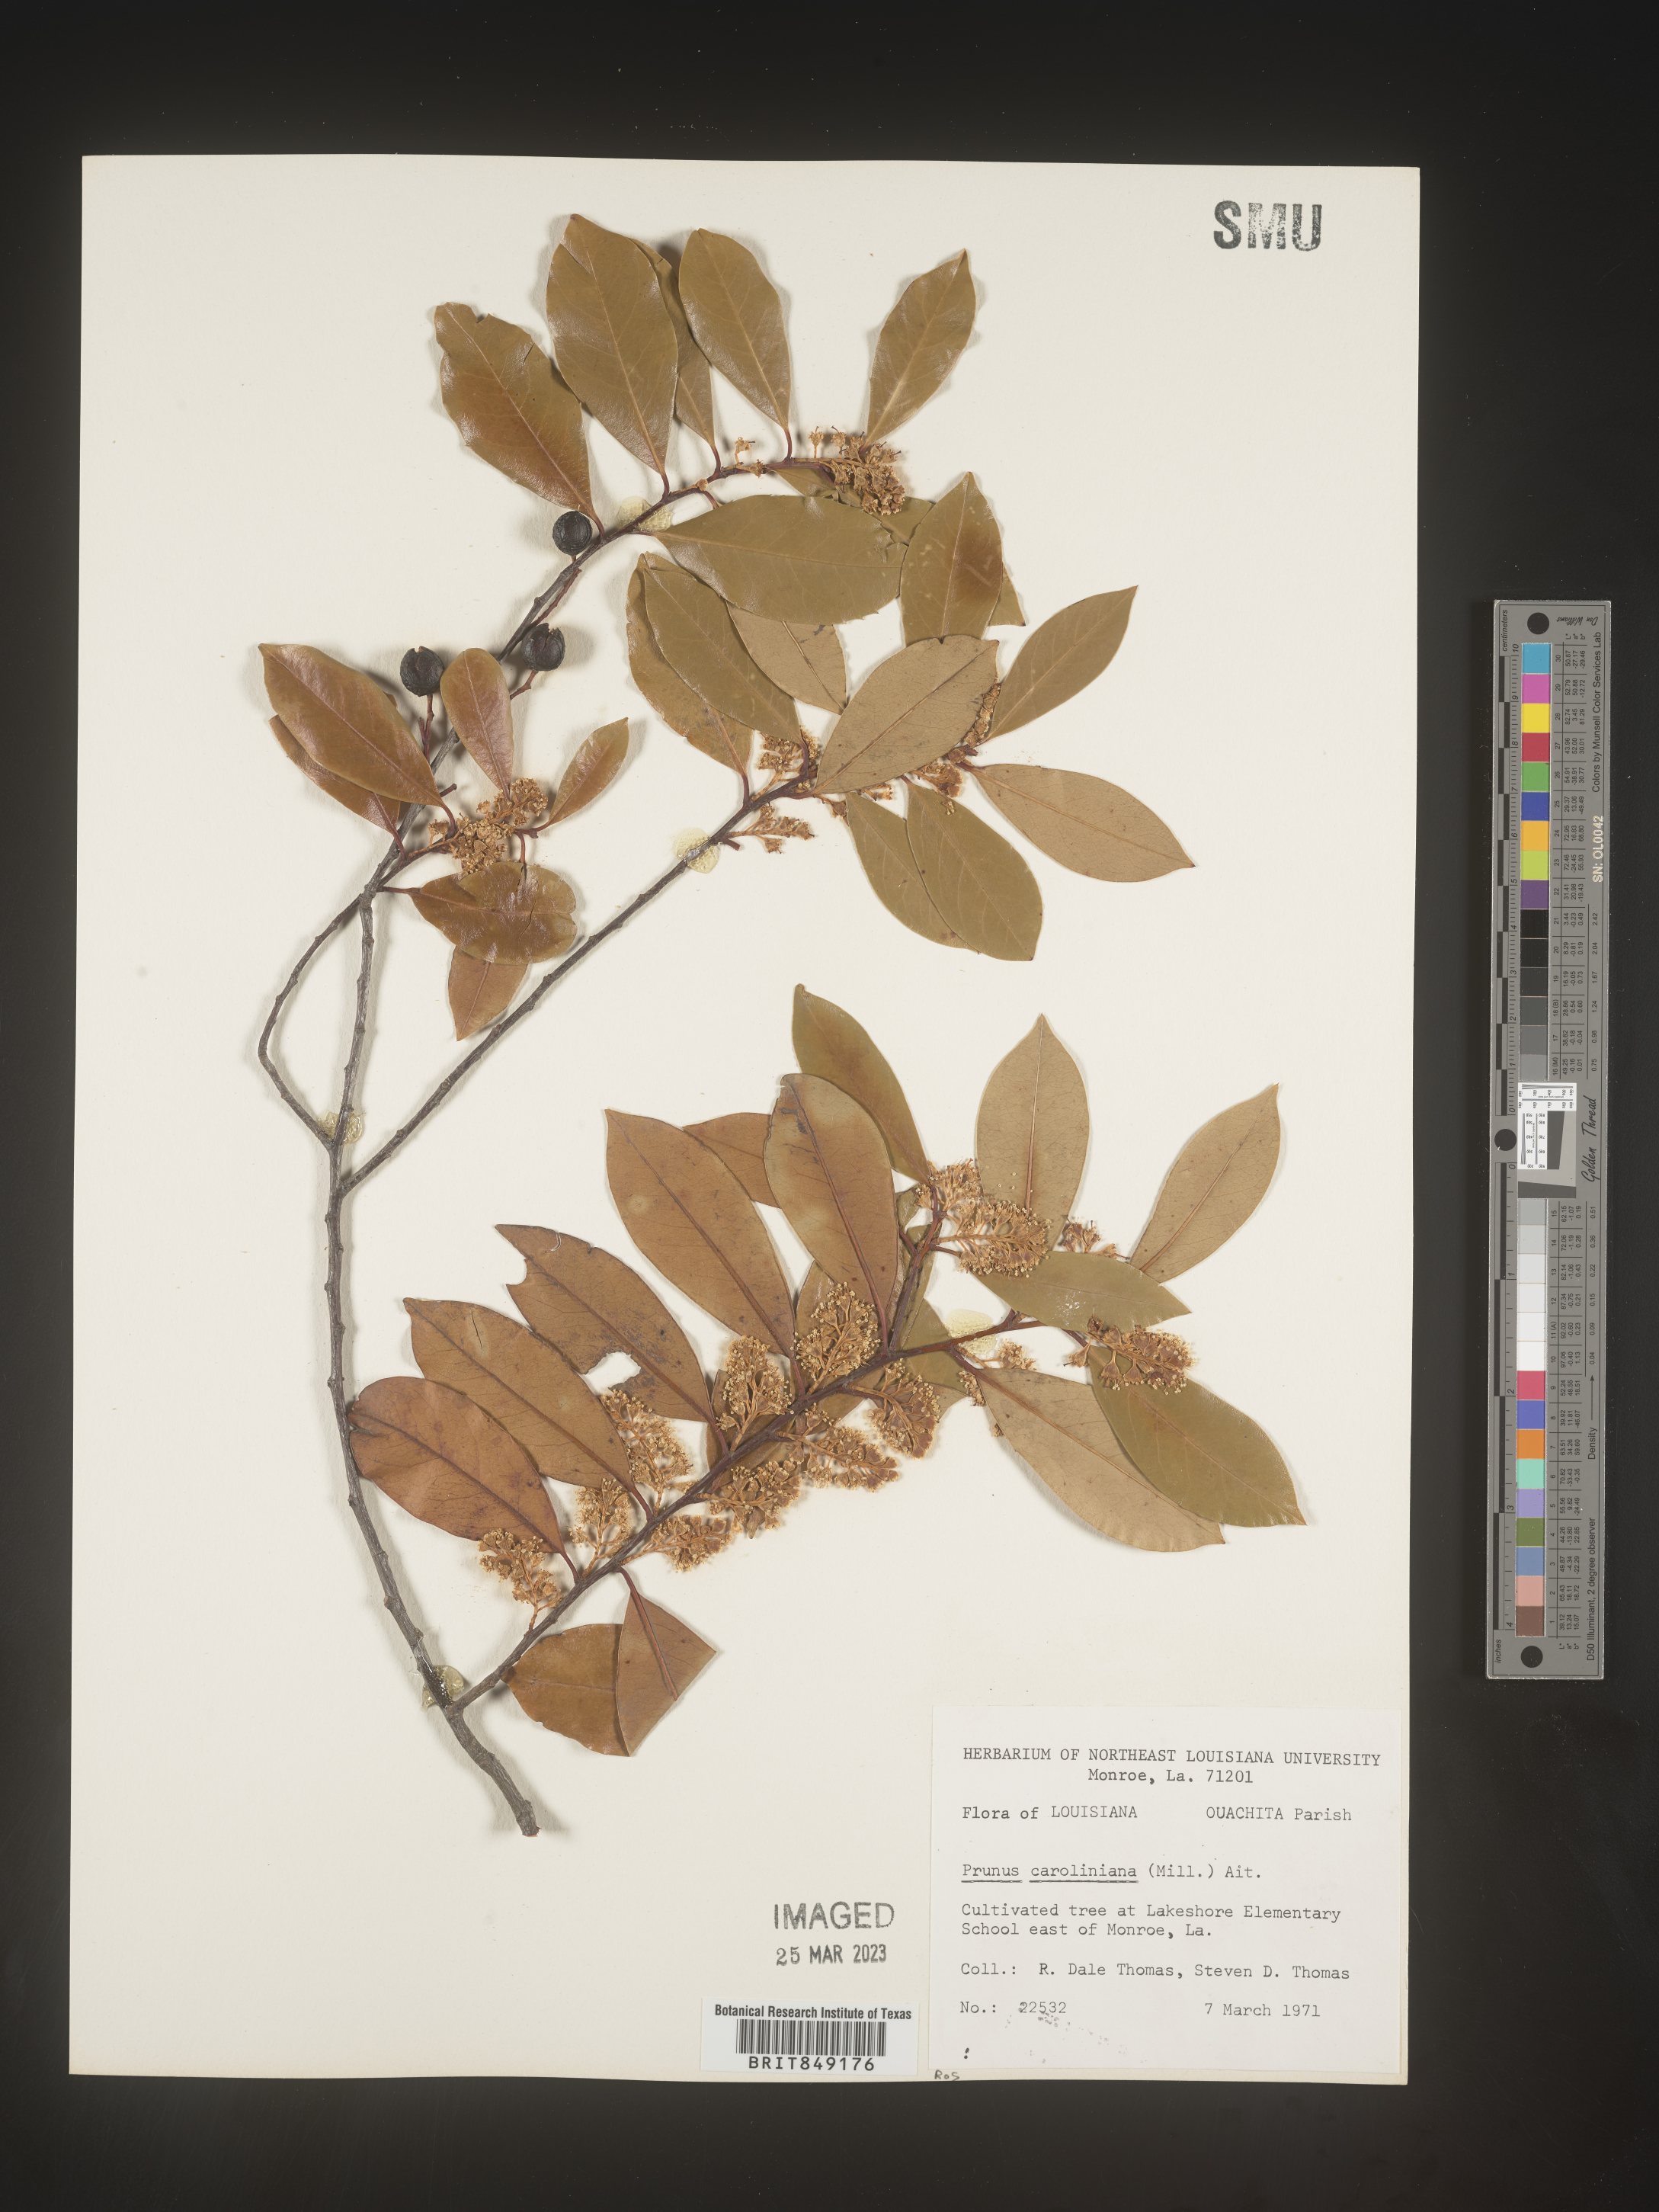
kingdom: Plantae
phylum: Tracheophyta
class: Magnoliopsida
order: Rosales
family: Rosaceae
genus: Prunus
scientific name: Prunus caroliniana
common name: Carolina laurel cherry
